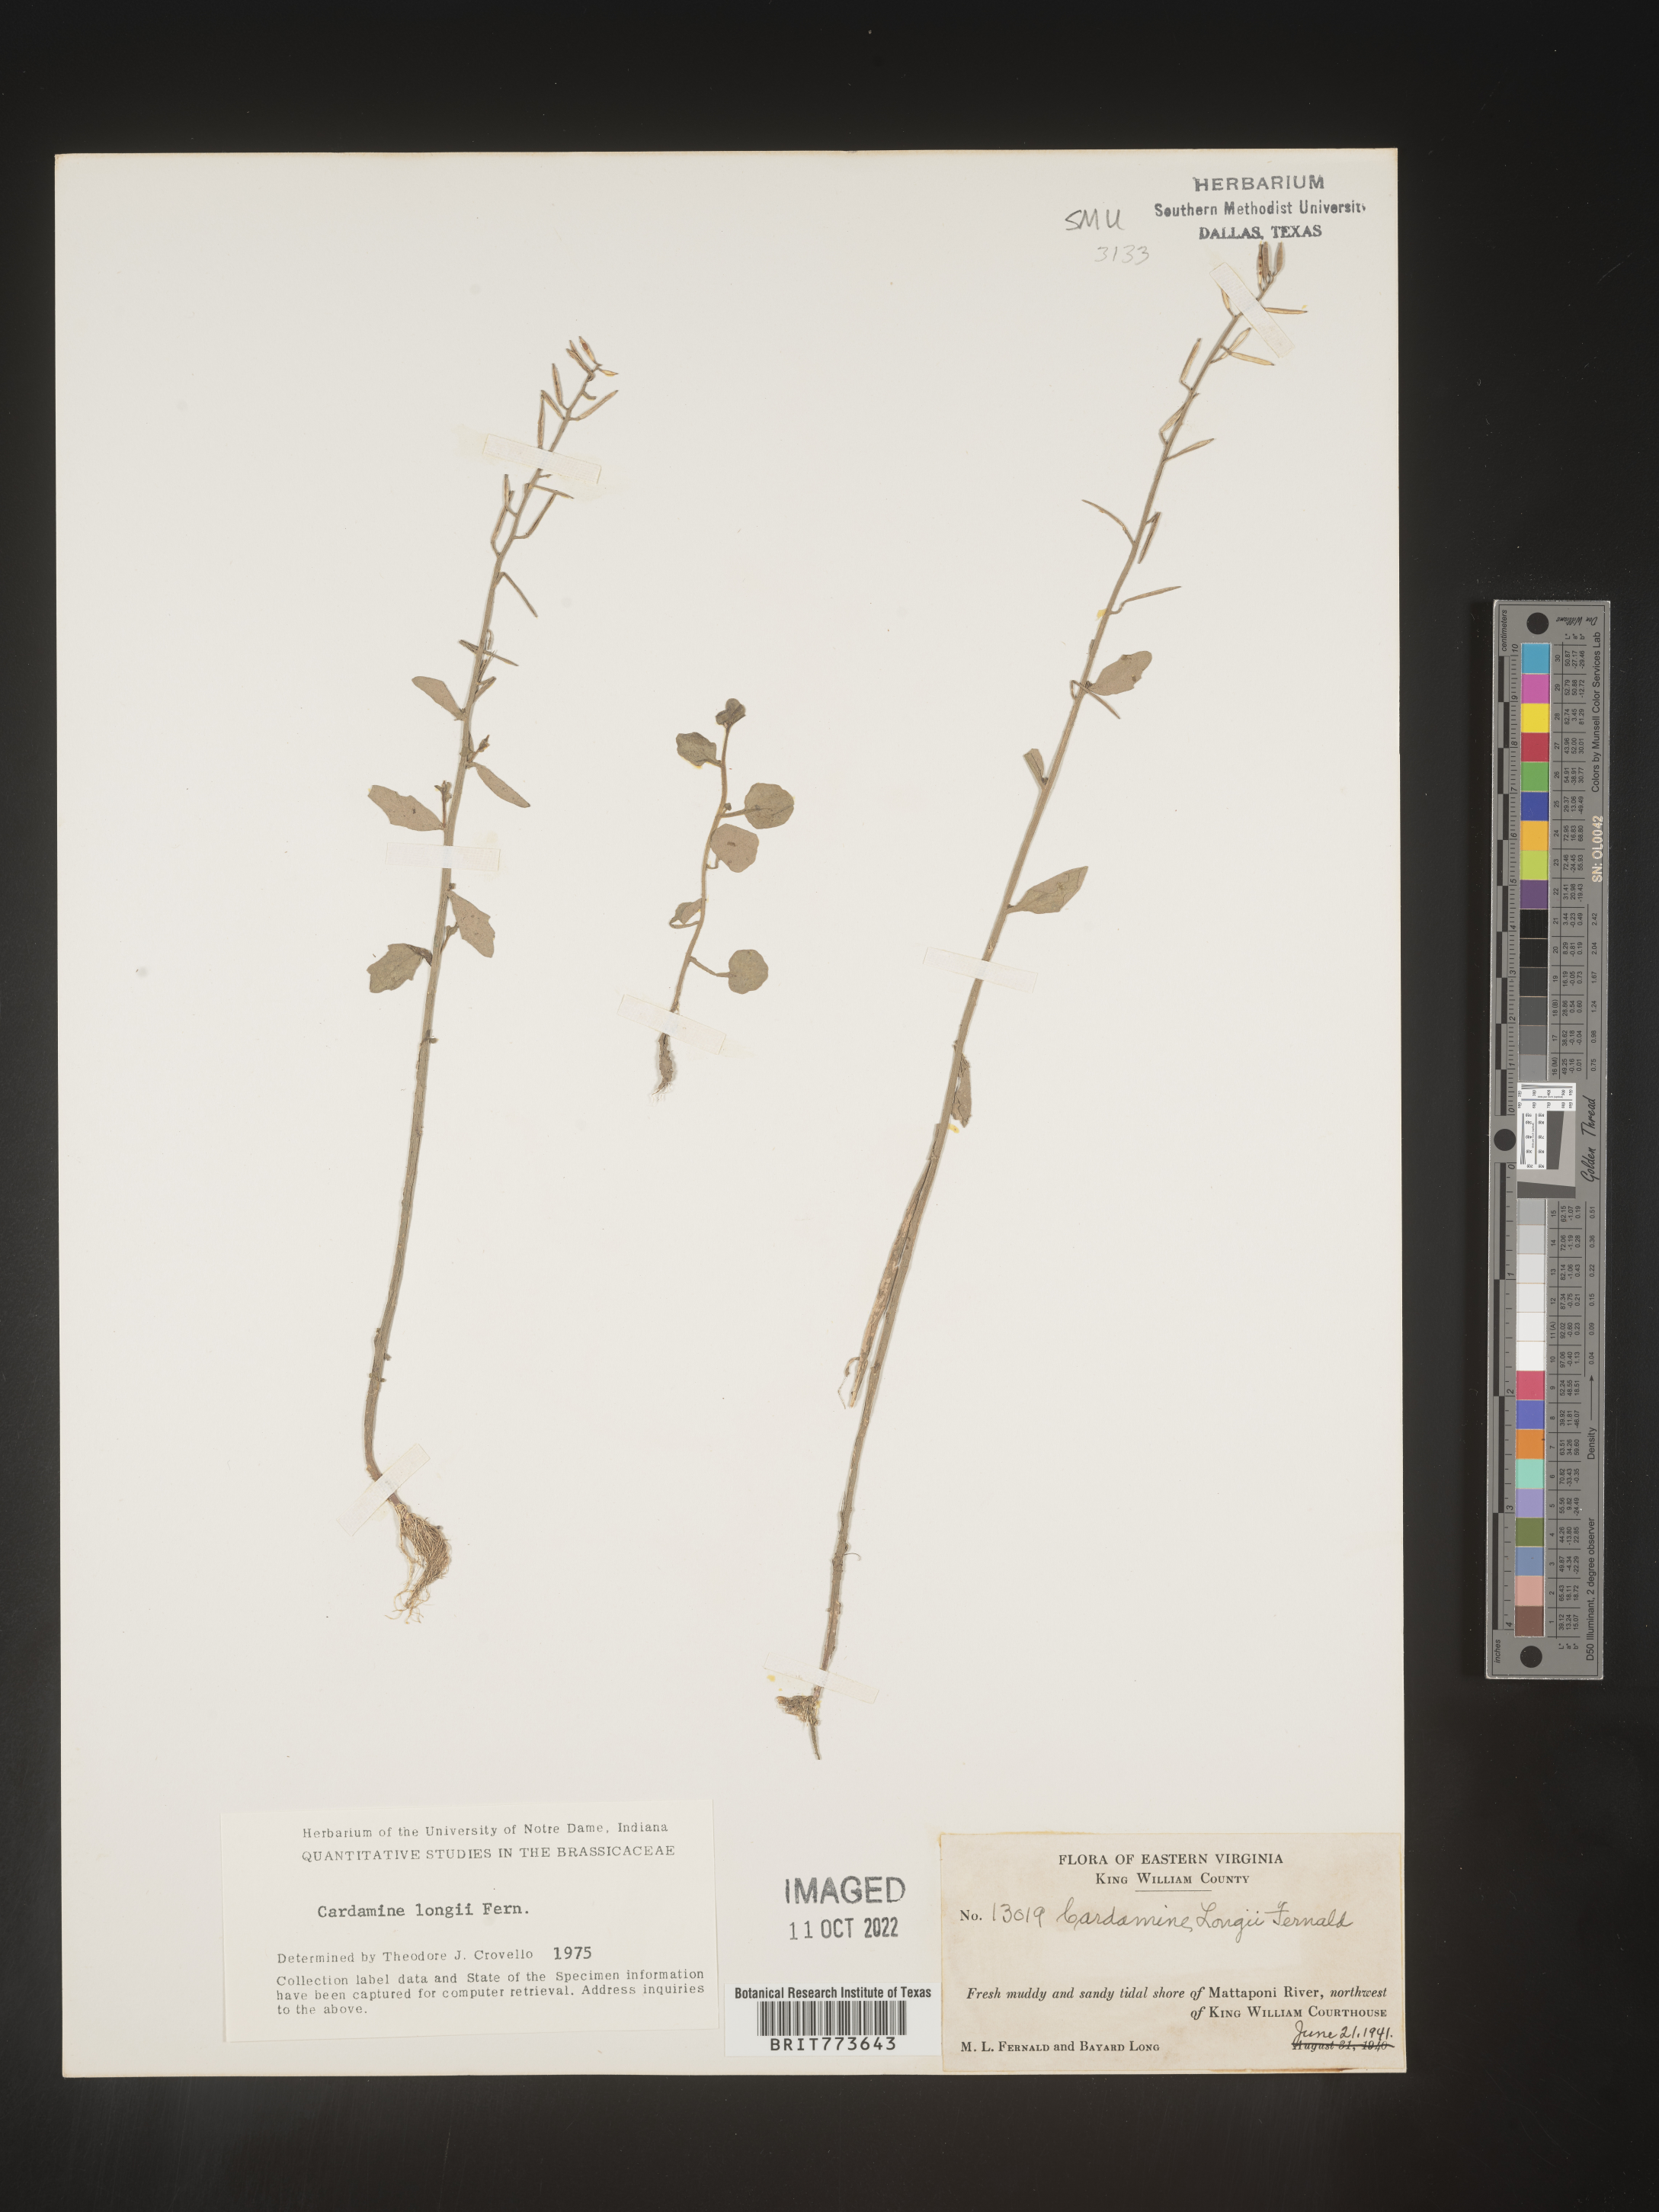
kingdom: Plantae
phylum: Tracheophyta
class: Magnoliopsida
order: Brassicales
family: Brassicaceae
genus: Cardamine
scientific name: Cardamine
